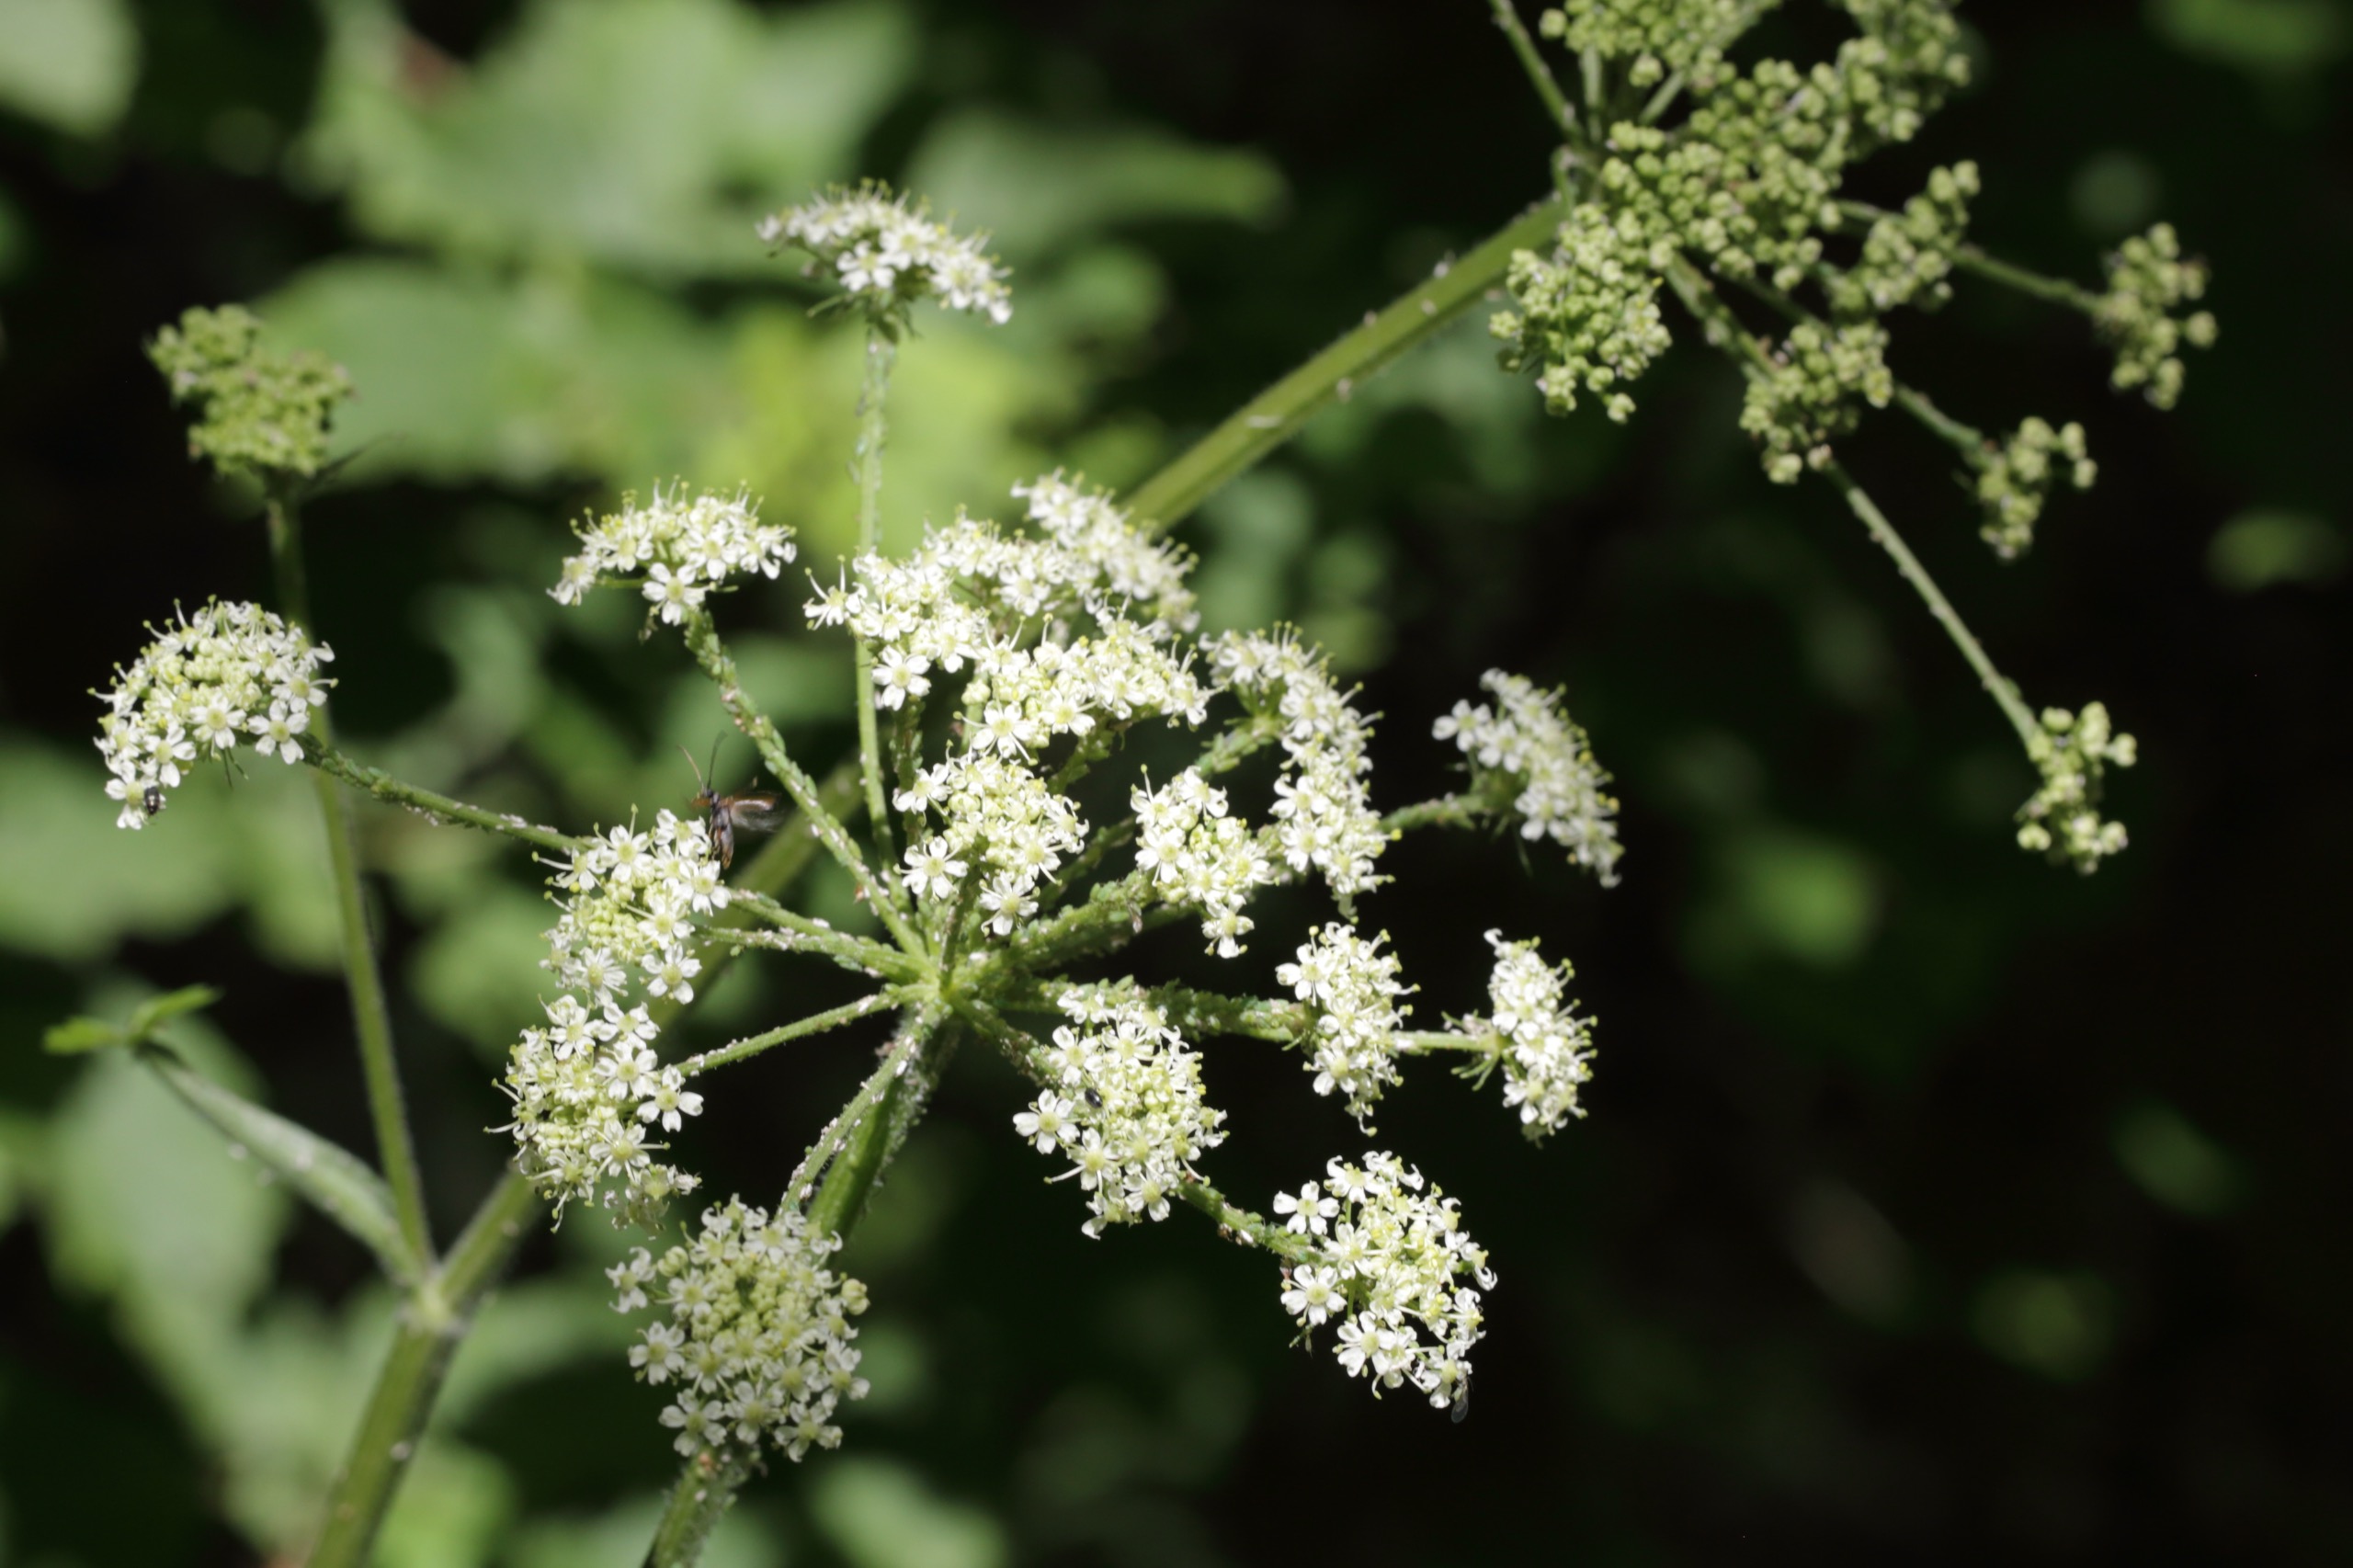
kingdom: Plantae
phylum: Tracheophyta
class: Magnoliopsida
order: Apiales
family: Apiaceae
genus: Heracleum
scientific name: Heracleum sphondylium
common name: Almindelig bjørneklo
